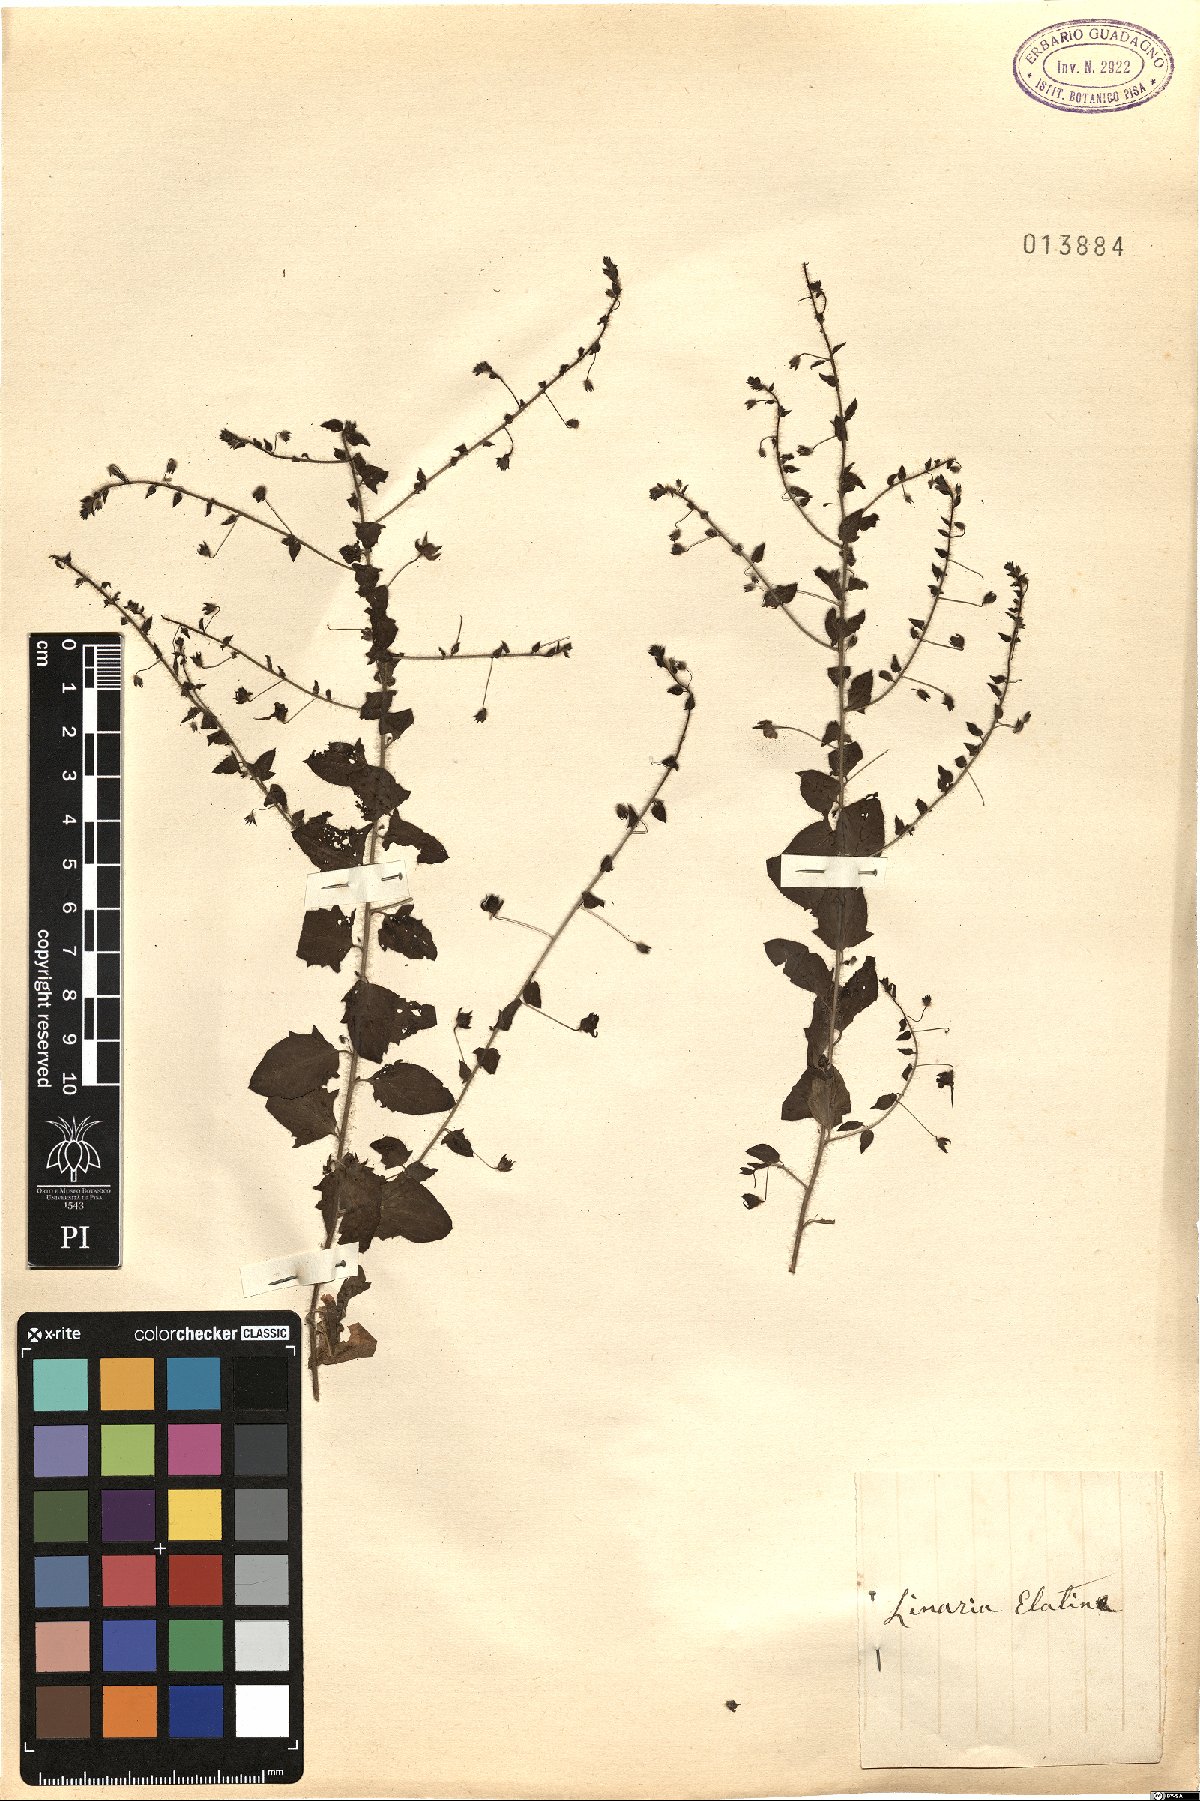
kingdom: Plantae
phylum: Tracheophyta
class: Magnoliopsida
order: Lamiales
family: Plantaginaceae
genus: Kickxia
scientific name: Kickxia elatine
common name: Sharp-leaved fluellen
